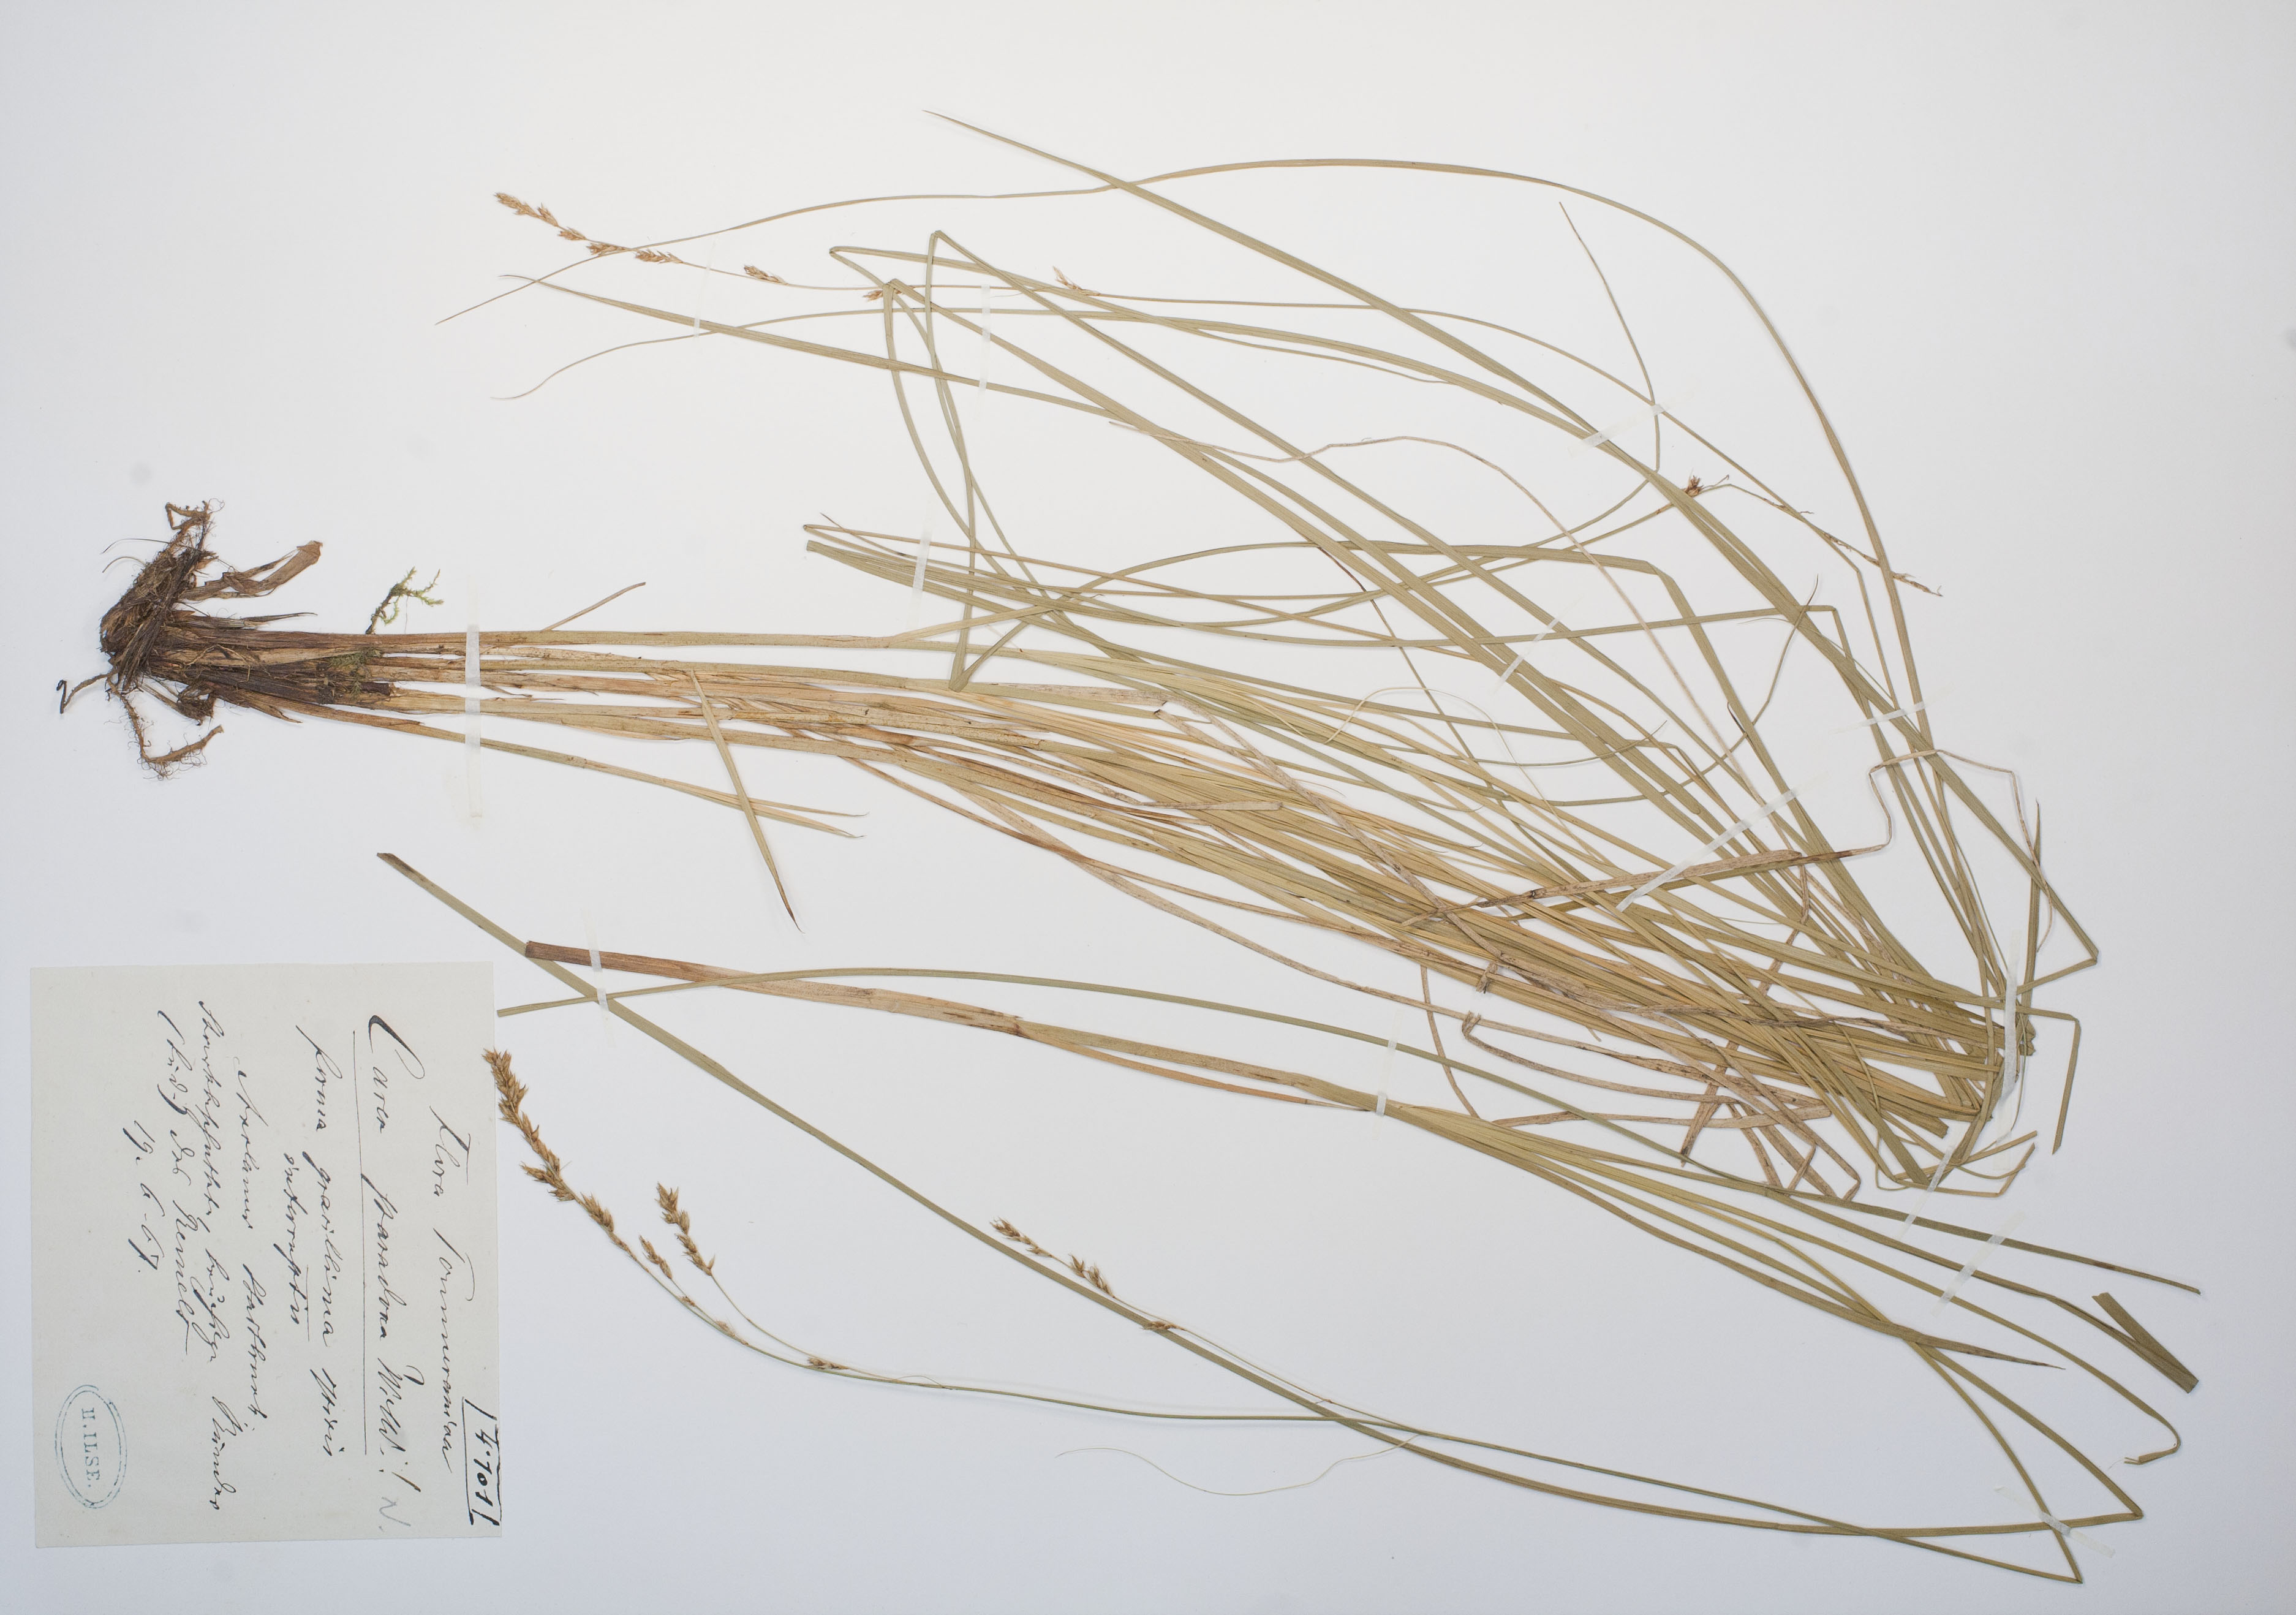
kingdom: Plantae
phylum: Tracheophyta
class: Liliopsida
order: Poales
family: Cyperaceae
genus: Carex
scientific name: Carex appropinquata
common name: Fibrous tussock-sedge
